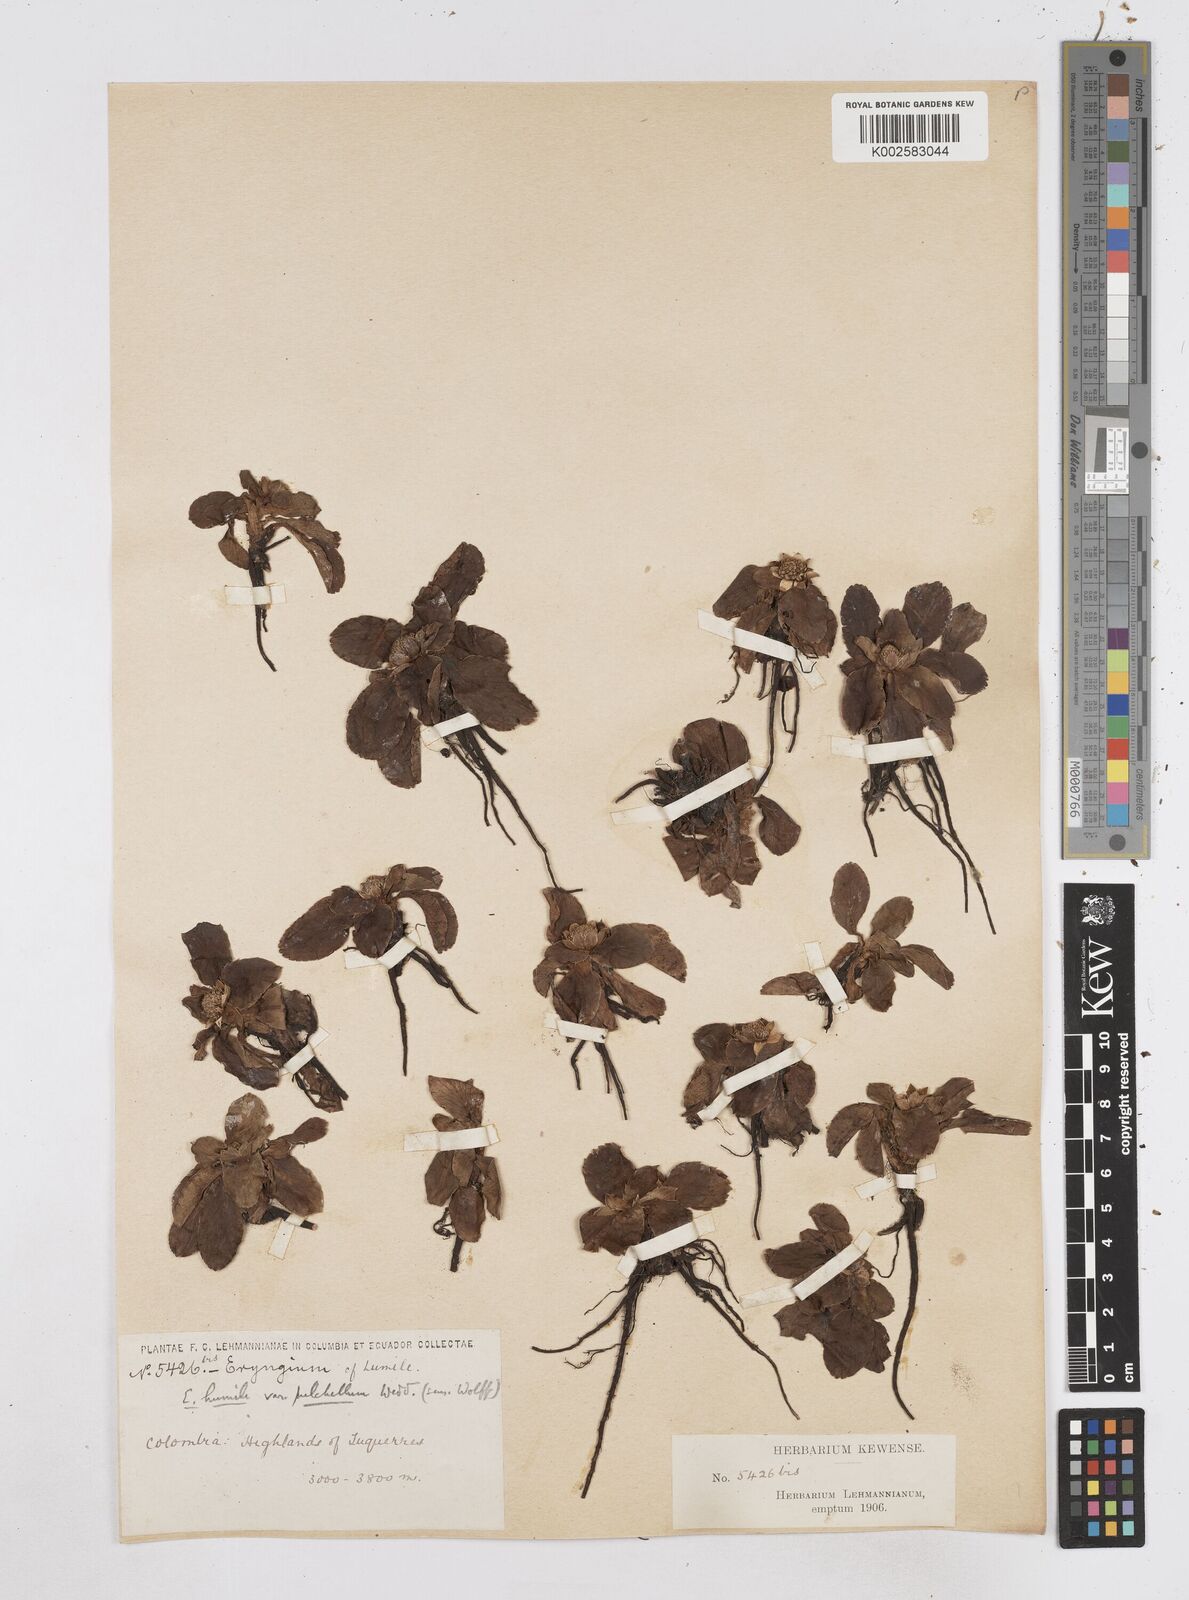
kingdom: Plantae
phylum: Tracheophyta
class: Magnoliopsida
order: Apiales
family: Apiaceae
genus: Eryngium
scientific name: Eryngium humile
